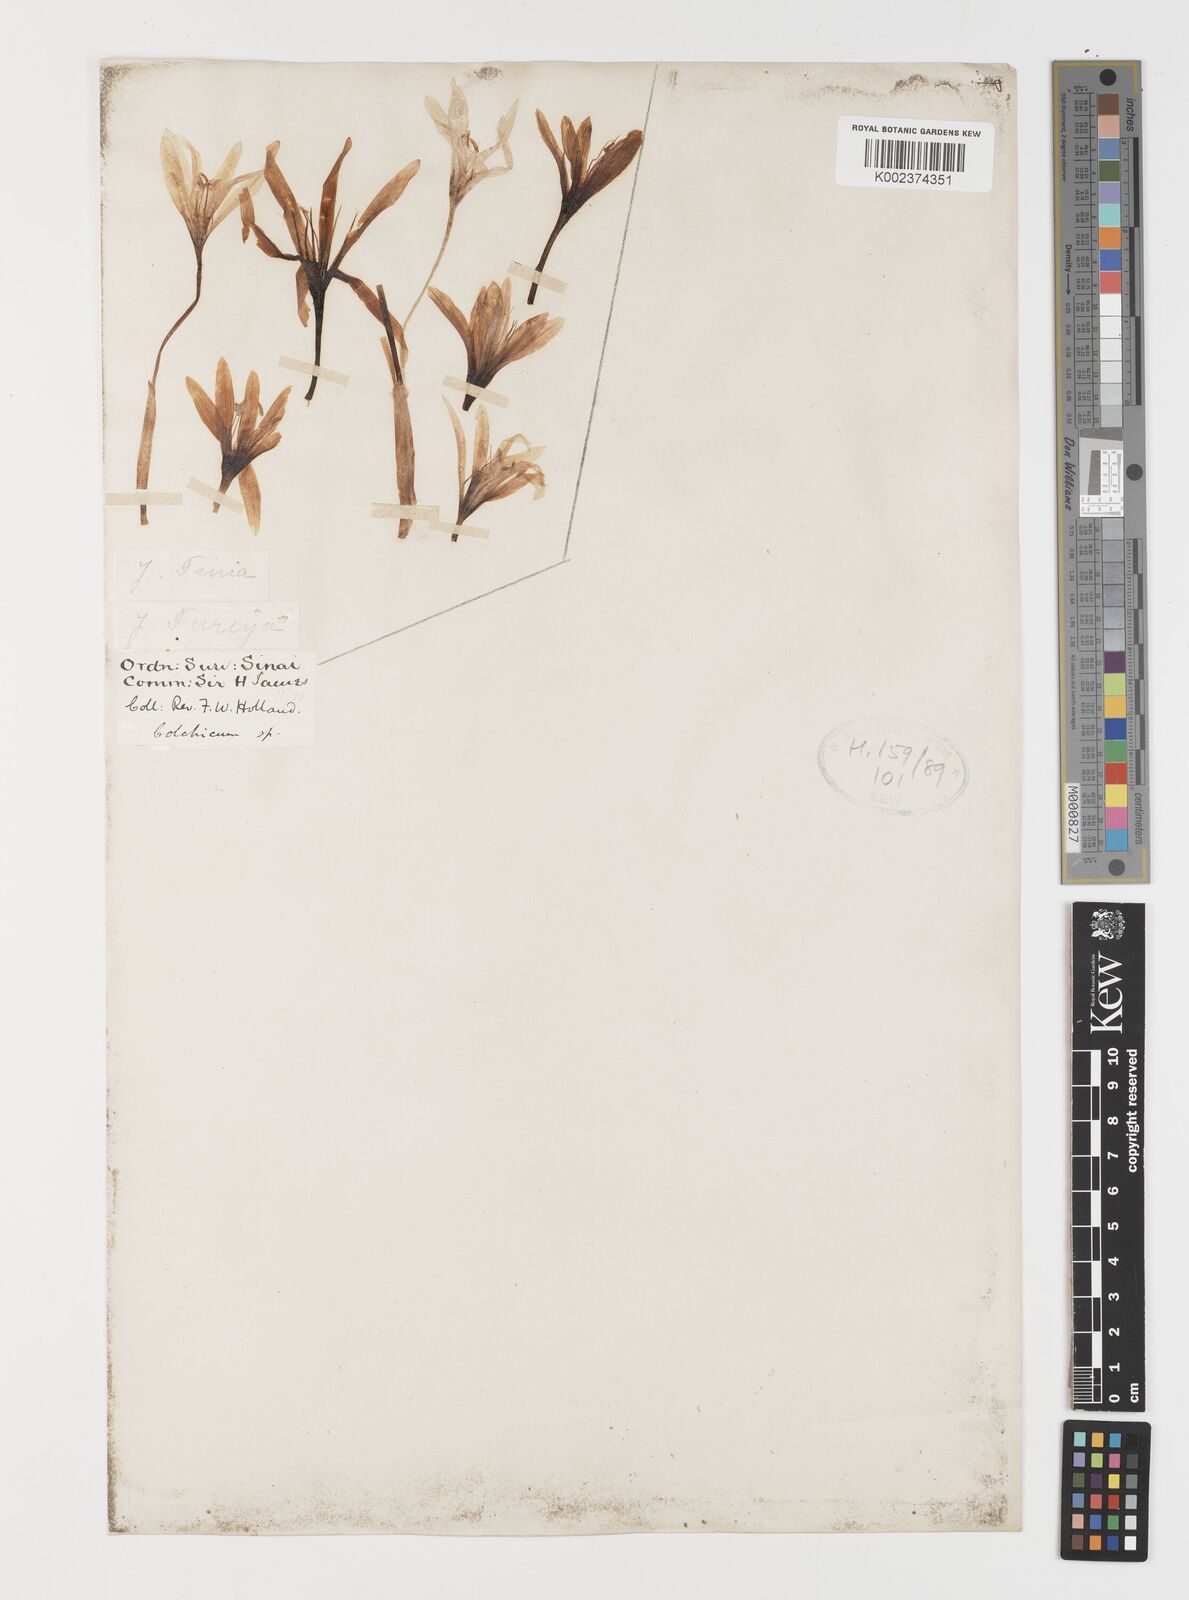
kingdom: Plantae
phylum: Tracheophyta
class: Liliopsida
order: Liliales
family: Colchicaceae
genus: Colchicum
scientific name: Colchicum
